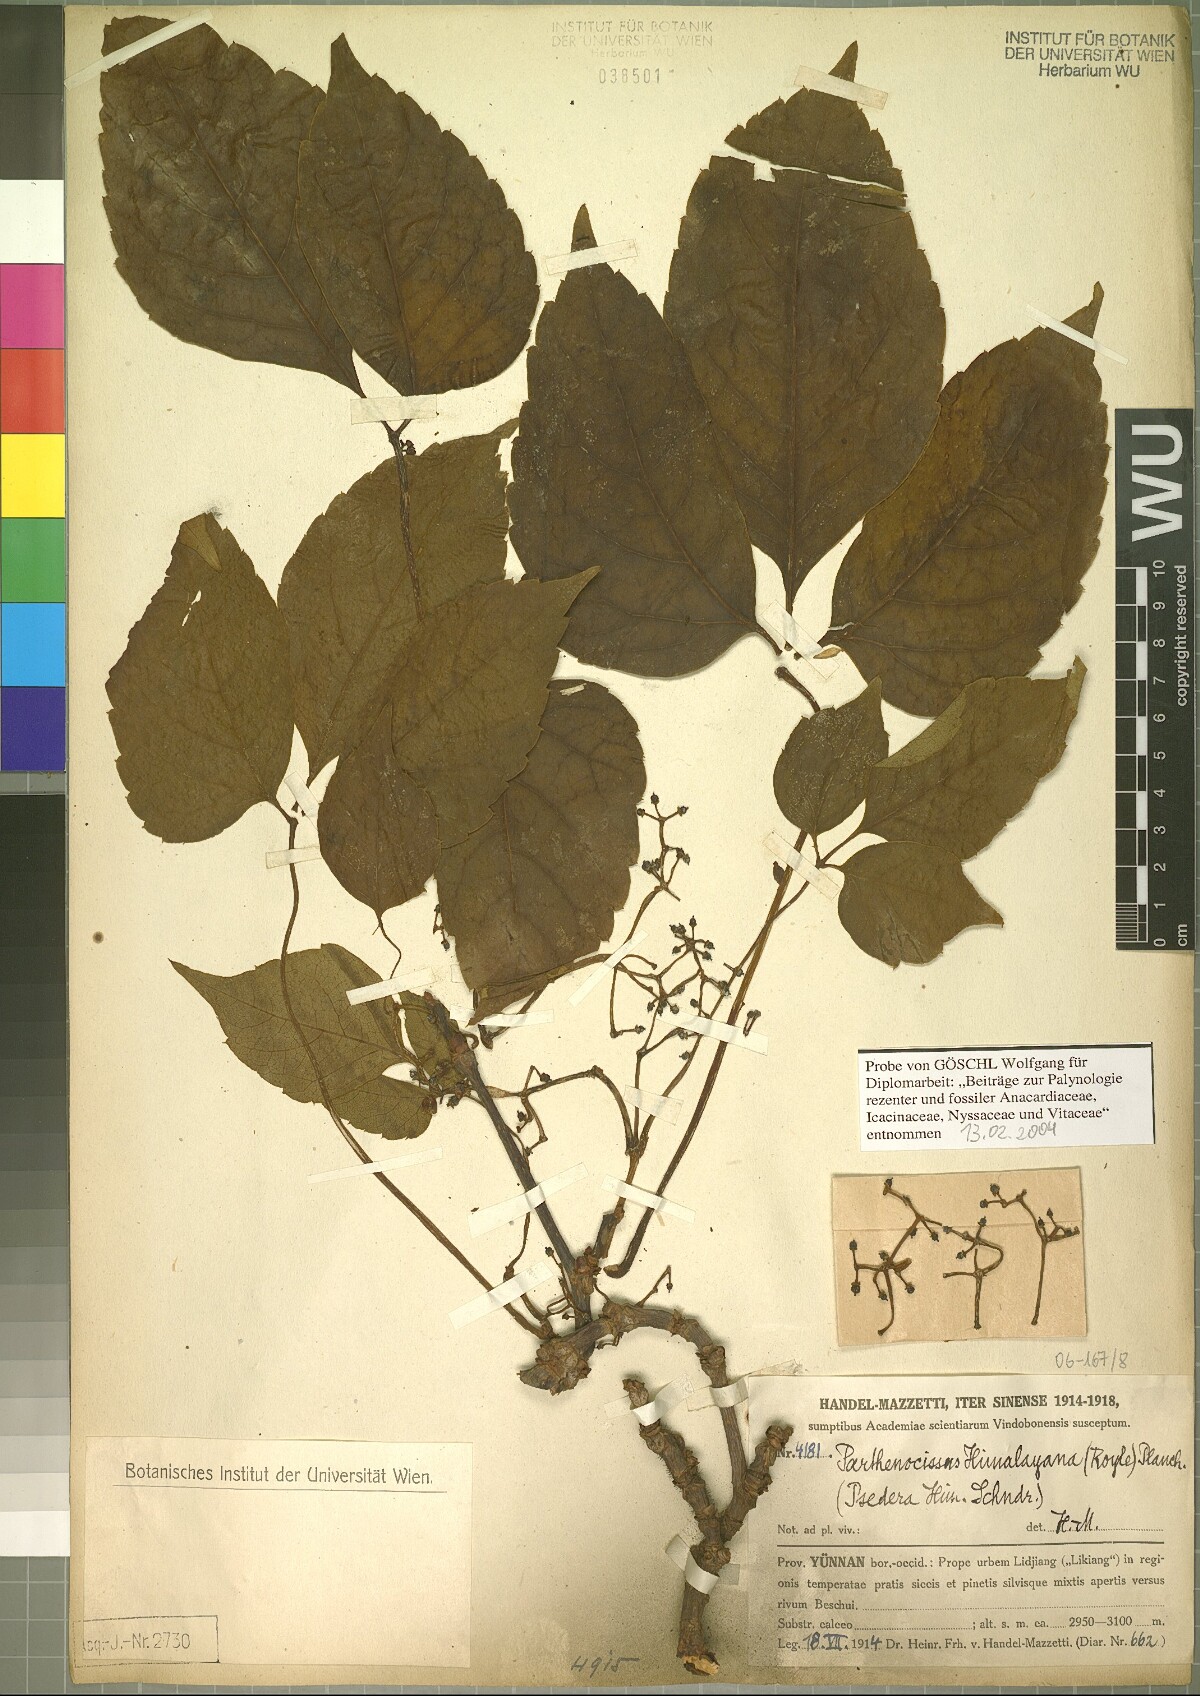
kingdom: Plantae
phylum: Tracheophyta
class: Magnoliopsida
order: Vitales
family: Vitaceae
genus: Parthenocissus
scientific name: Parthenocissus semicordata
